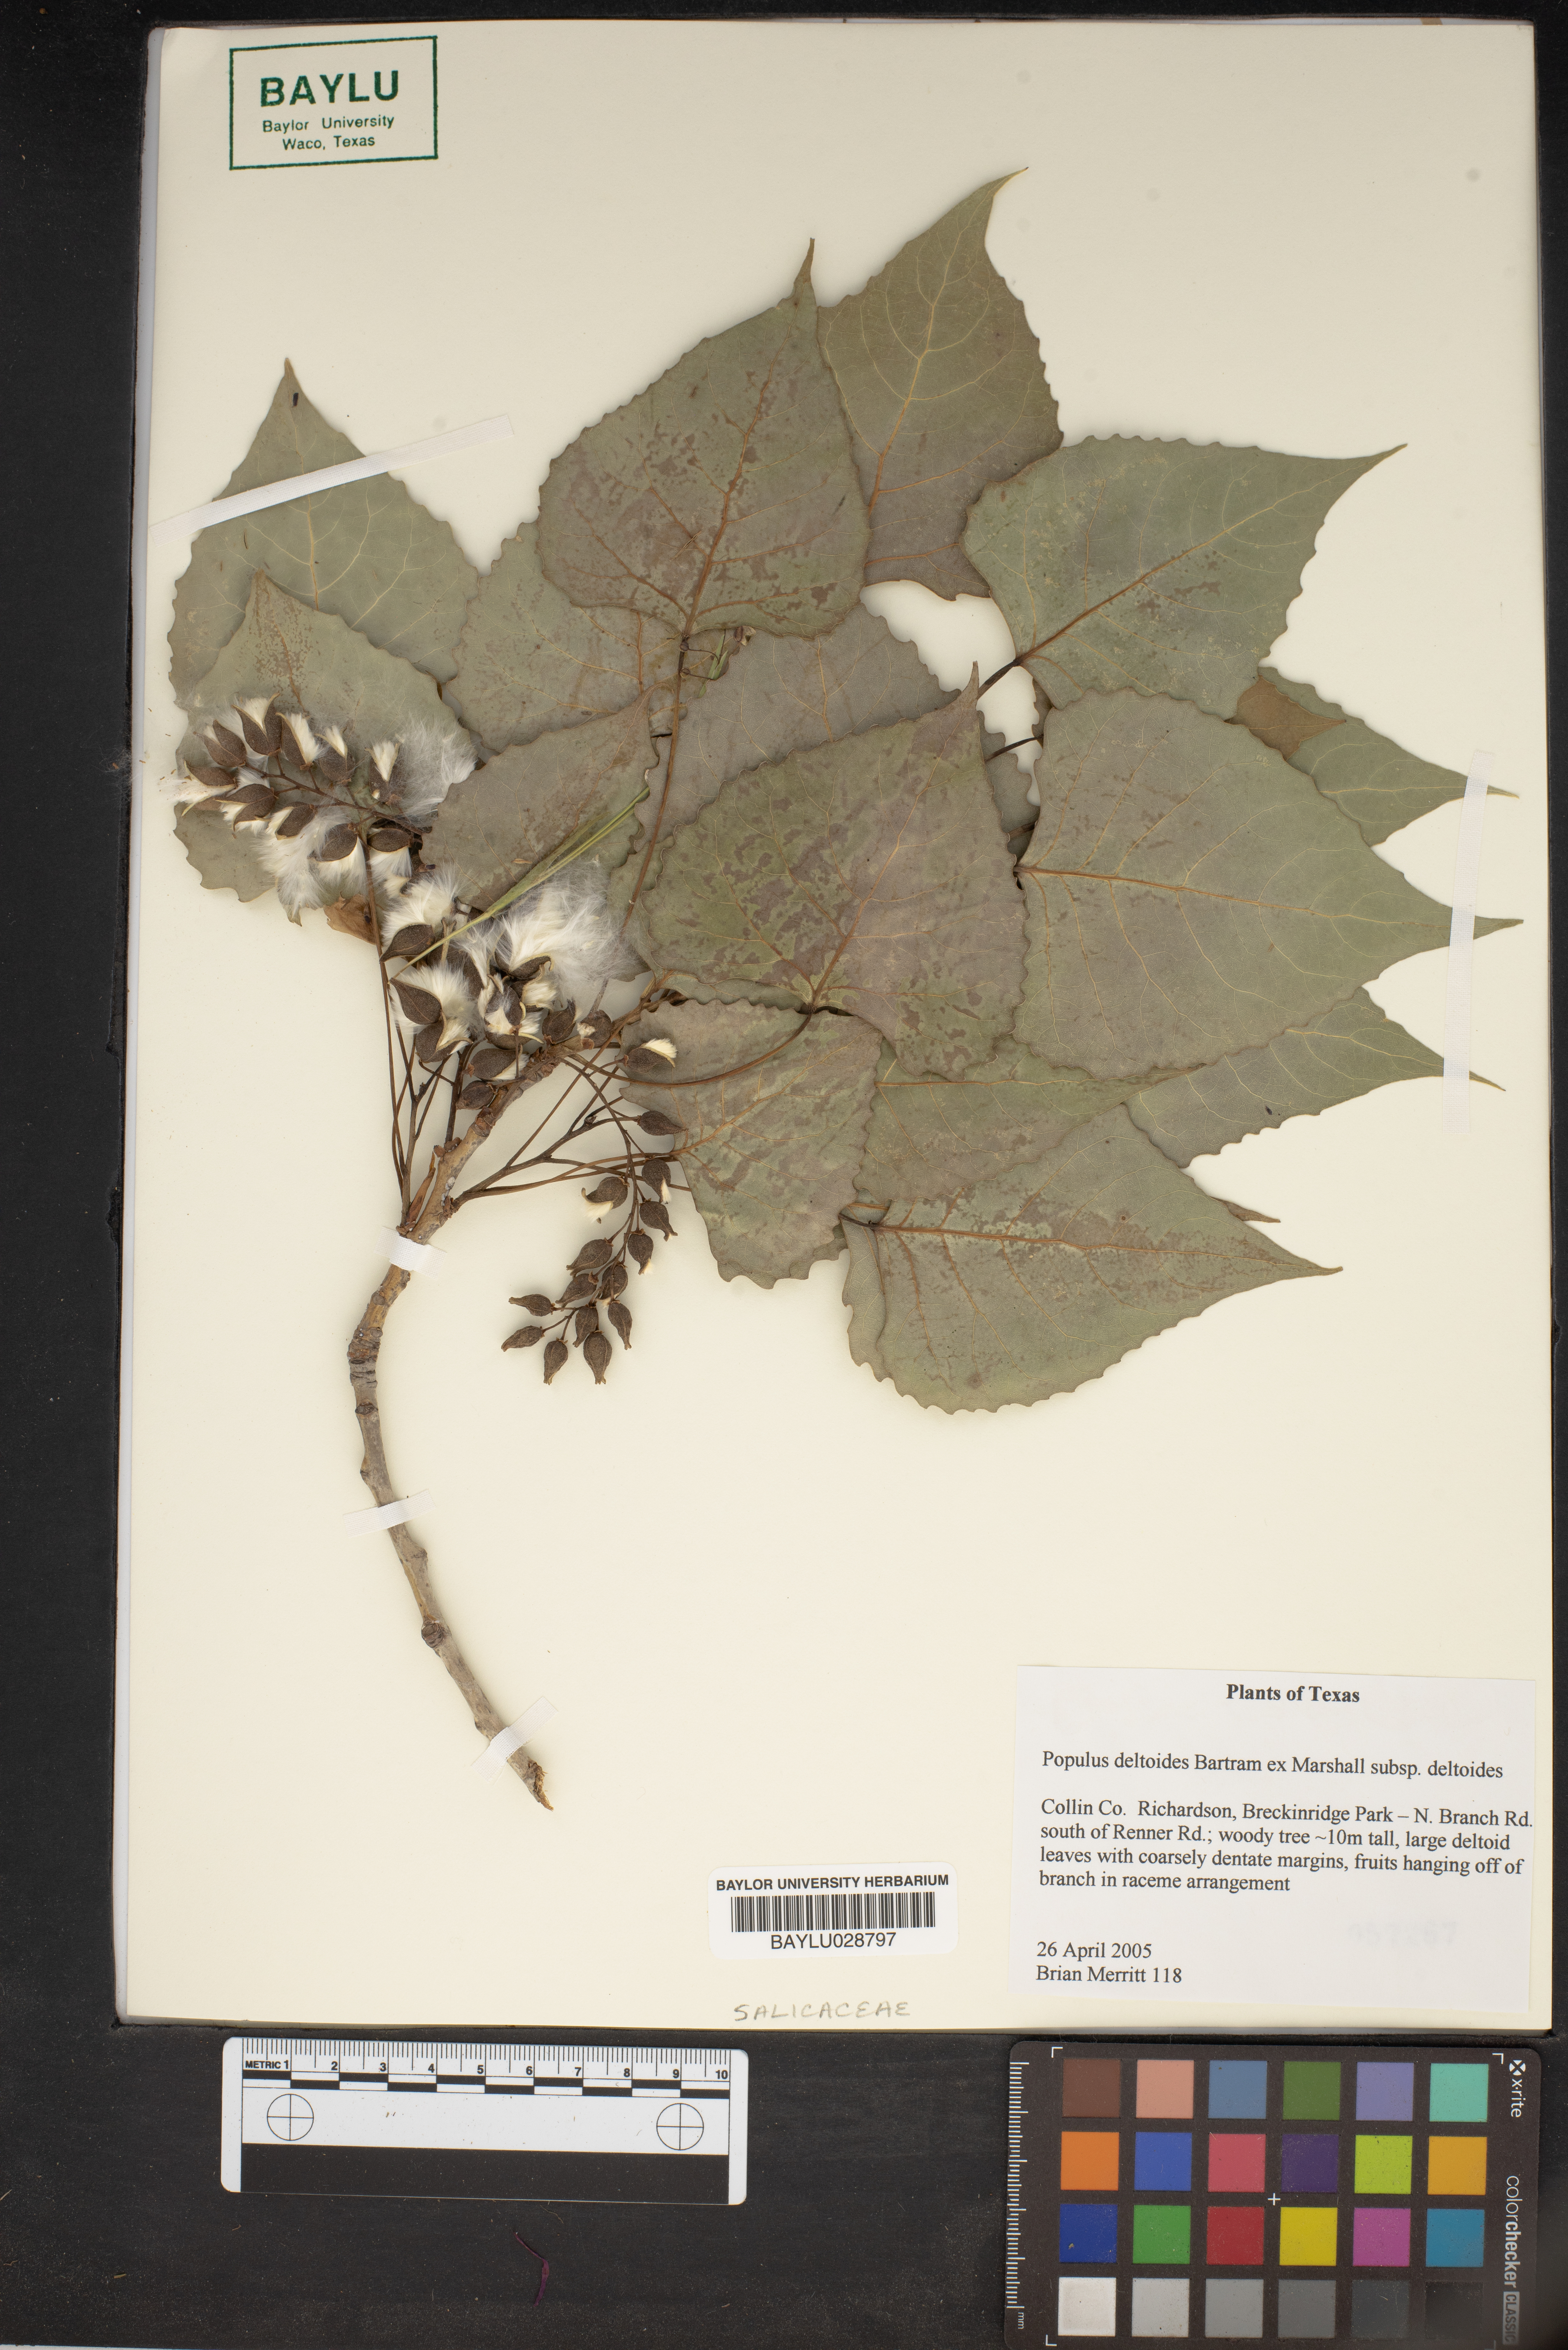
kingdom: Plantae
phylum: Tracheophyta
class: Magnoliopsida
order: Malpighiales
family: Salicaceae
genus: Populus
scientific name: Populus deltoides
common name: Eastern cottonwood
